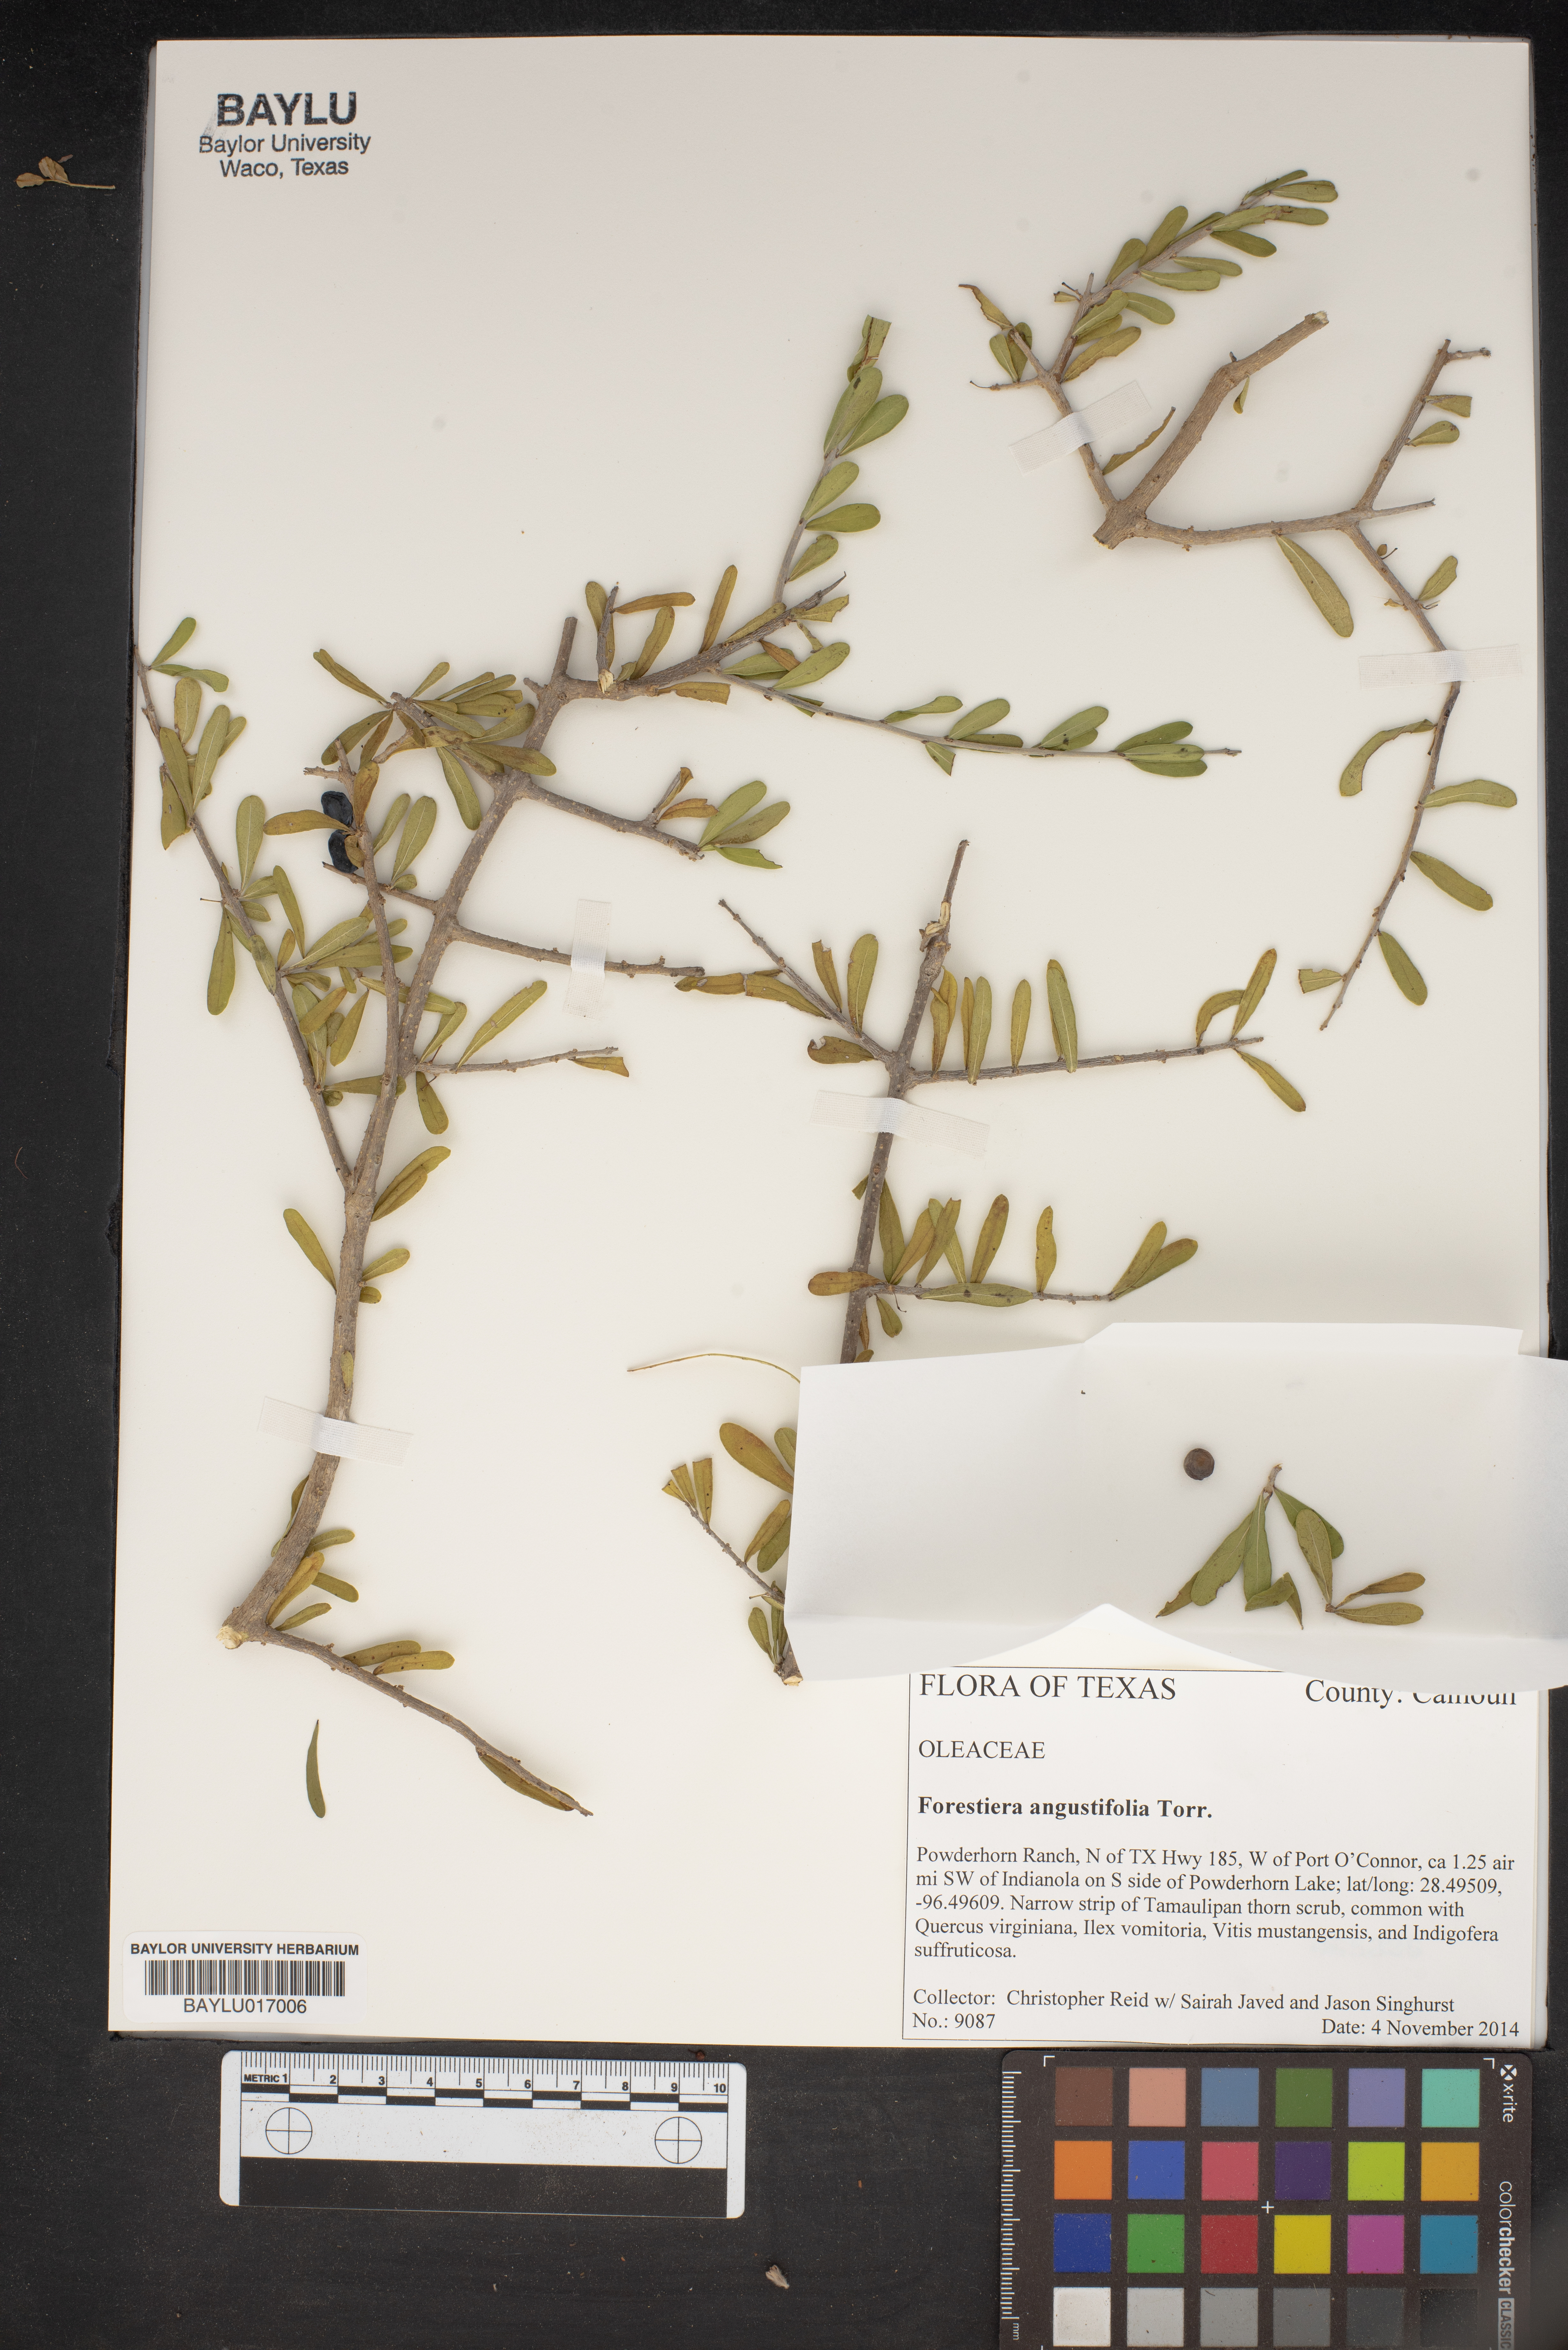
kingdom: Plantae
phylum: Tracheophyta
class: Magnoliopsida
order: Lamiales
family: Oleaceae
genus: Forestiera
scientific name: Forestiera angustifolia
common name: Elbowbush
